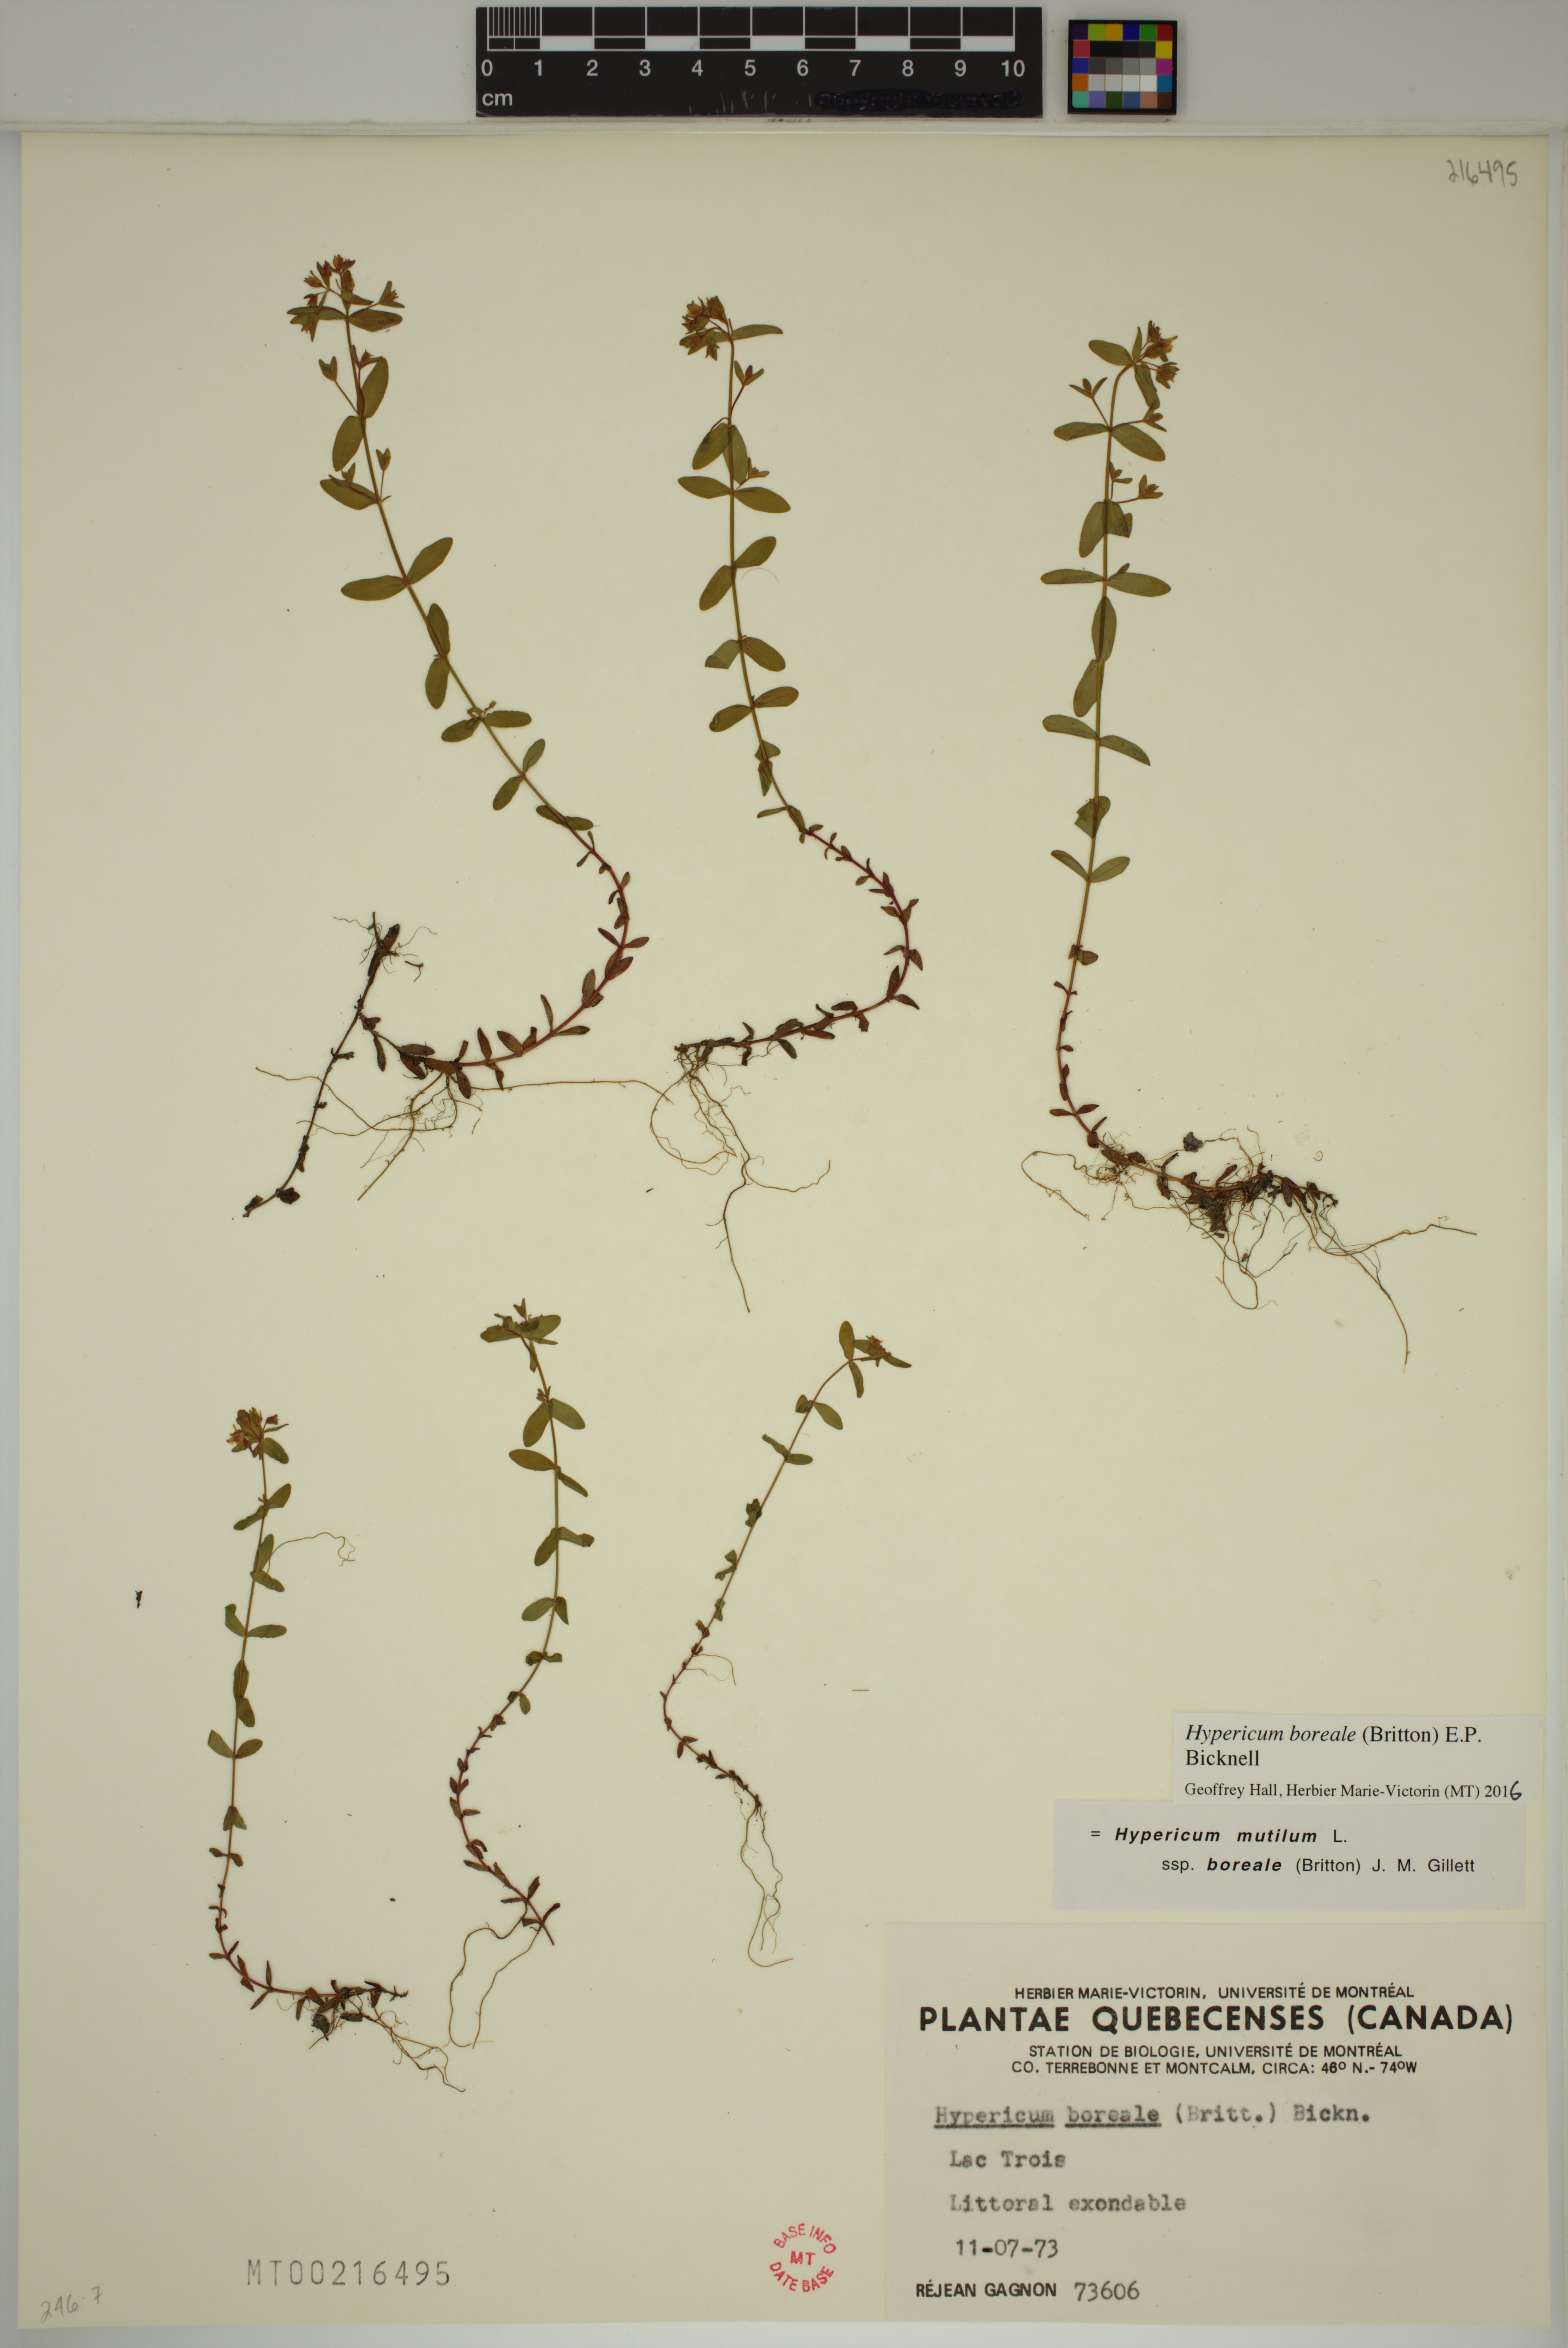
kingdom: Plantae
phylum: Tracheophyta
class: Magnoliopsida
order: Malpighiales
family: Hypericaceae
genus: Hypericum
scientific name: Hypericum boreale
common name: Northern bog st. john's-wort
